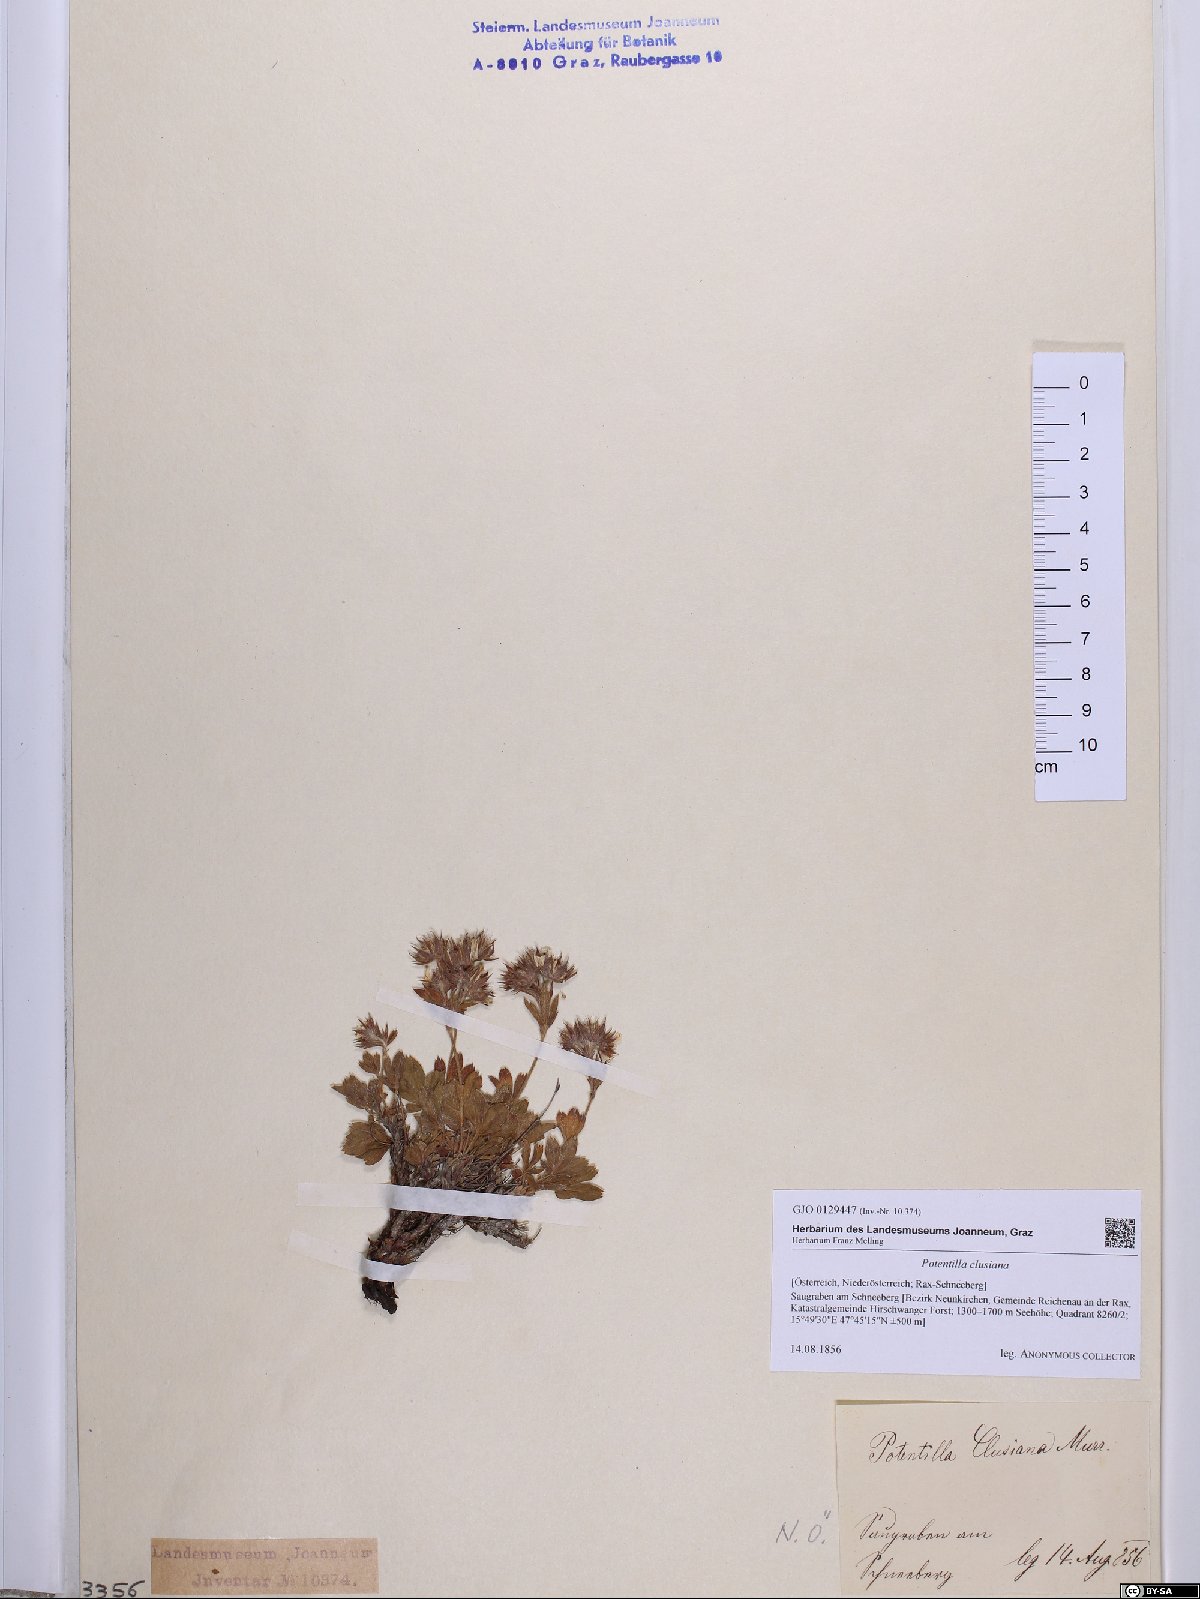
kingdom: Plantae
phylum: Tracheophyta
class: Magnoliopsida
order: Rosales
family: Rosaceae
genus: Potentilla
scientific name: Potentilla clusiana
